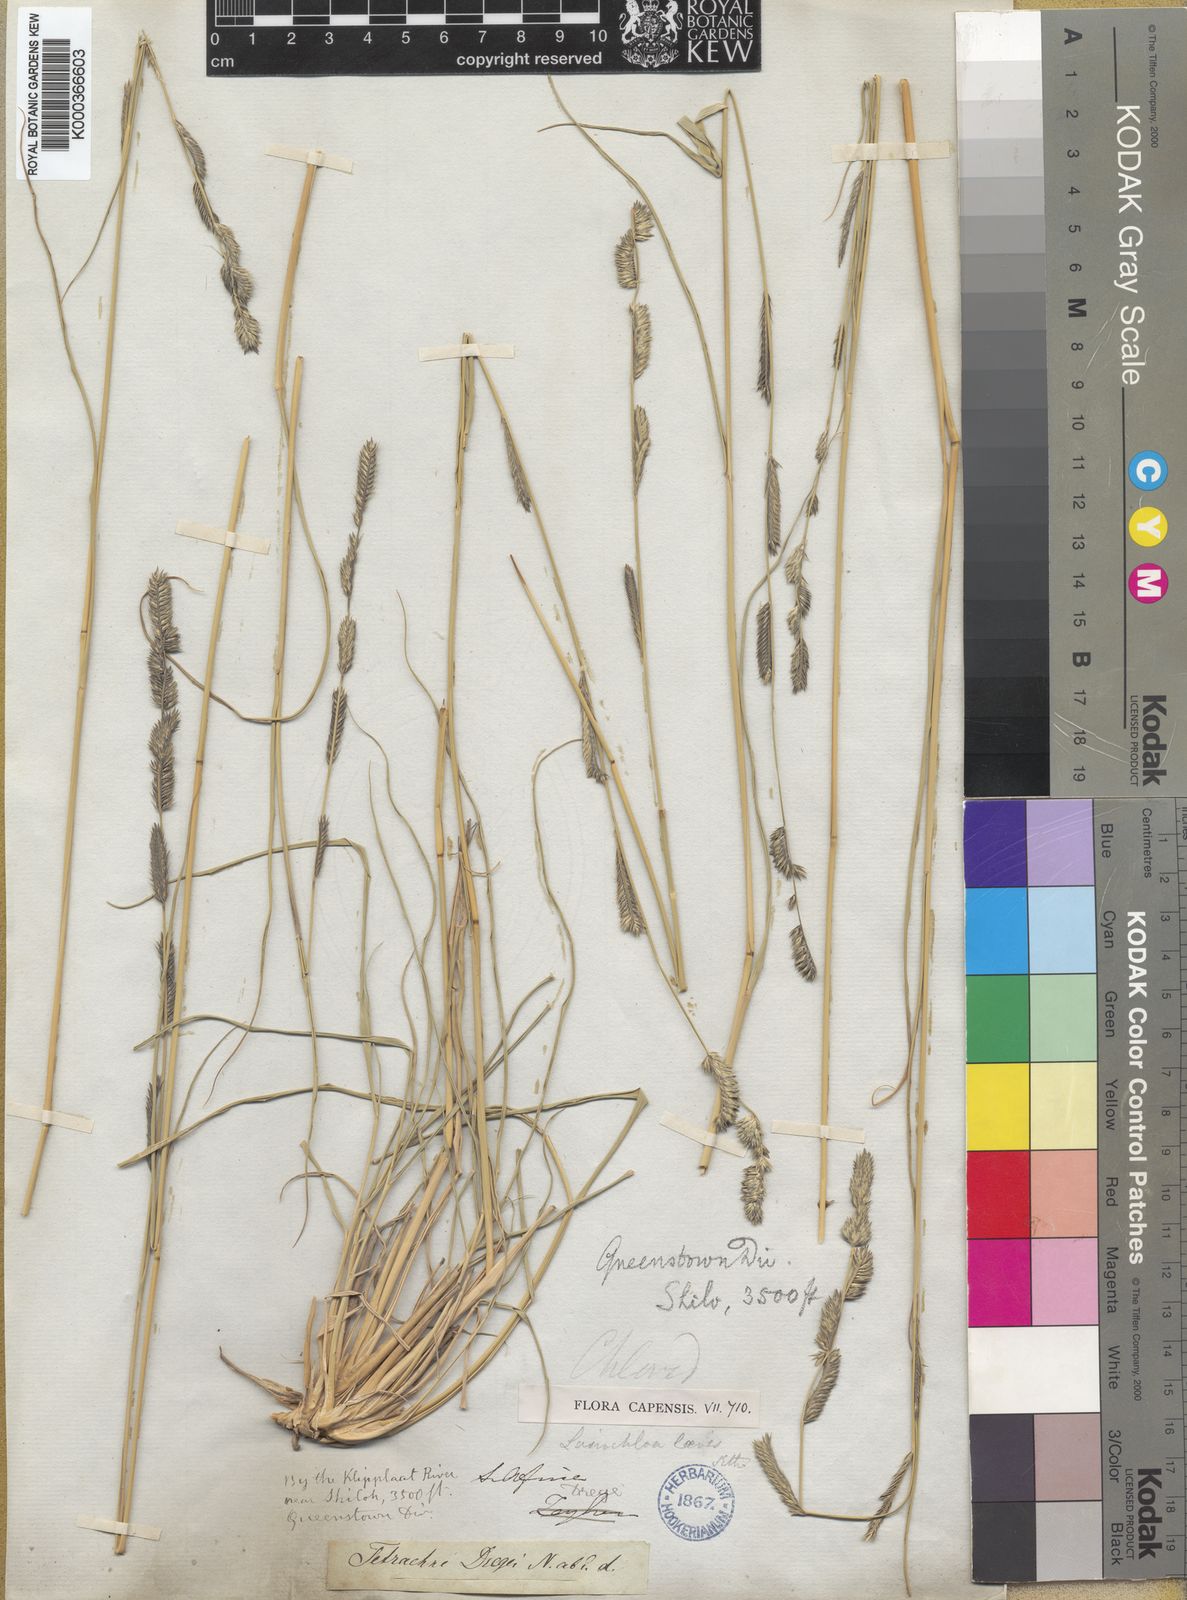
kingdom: Plantae
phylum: Tracheophyta
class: Liliopsida
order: Poales
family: Poaceae
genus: Tetrachne
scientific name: Tetrachne dregei
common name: Robies cocksfoot
